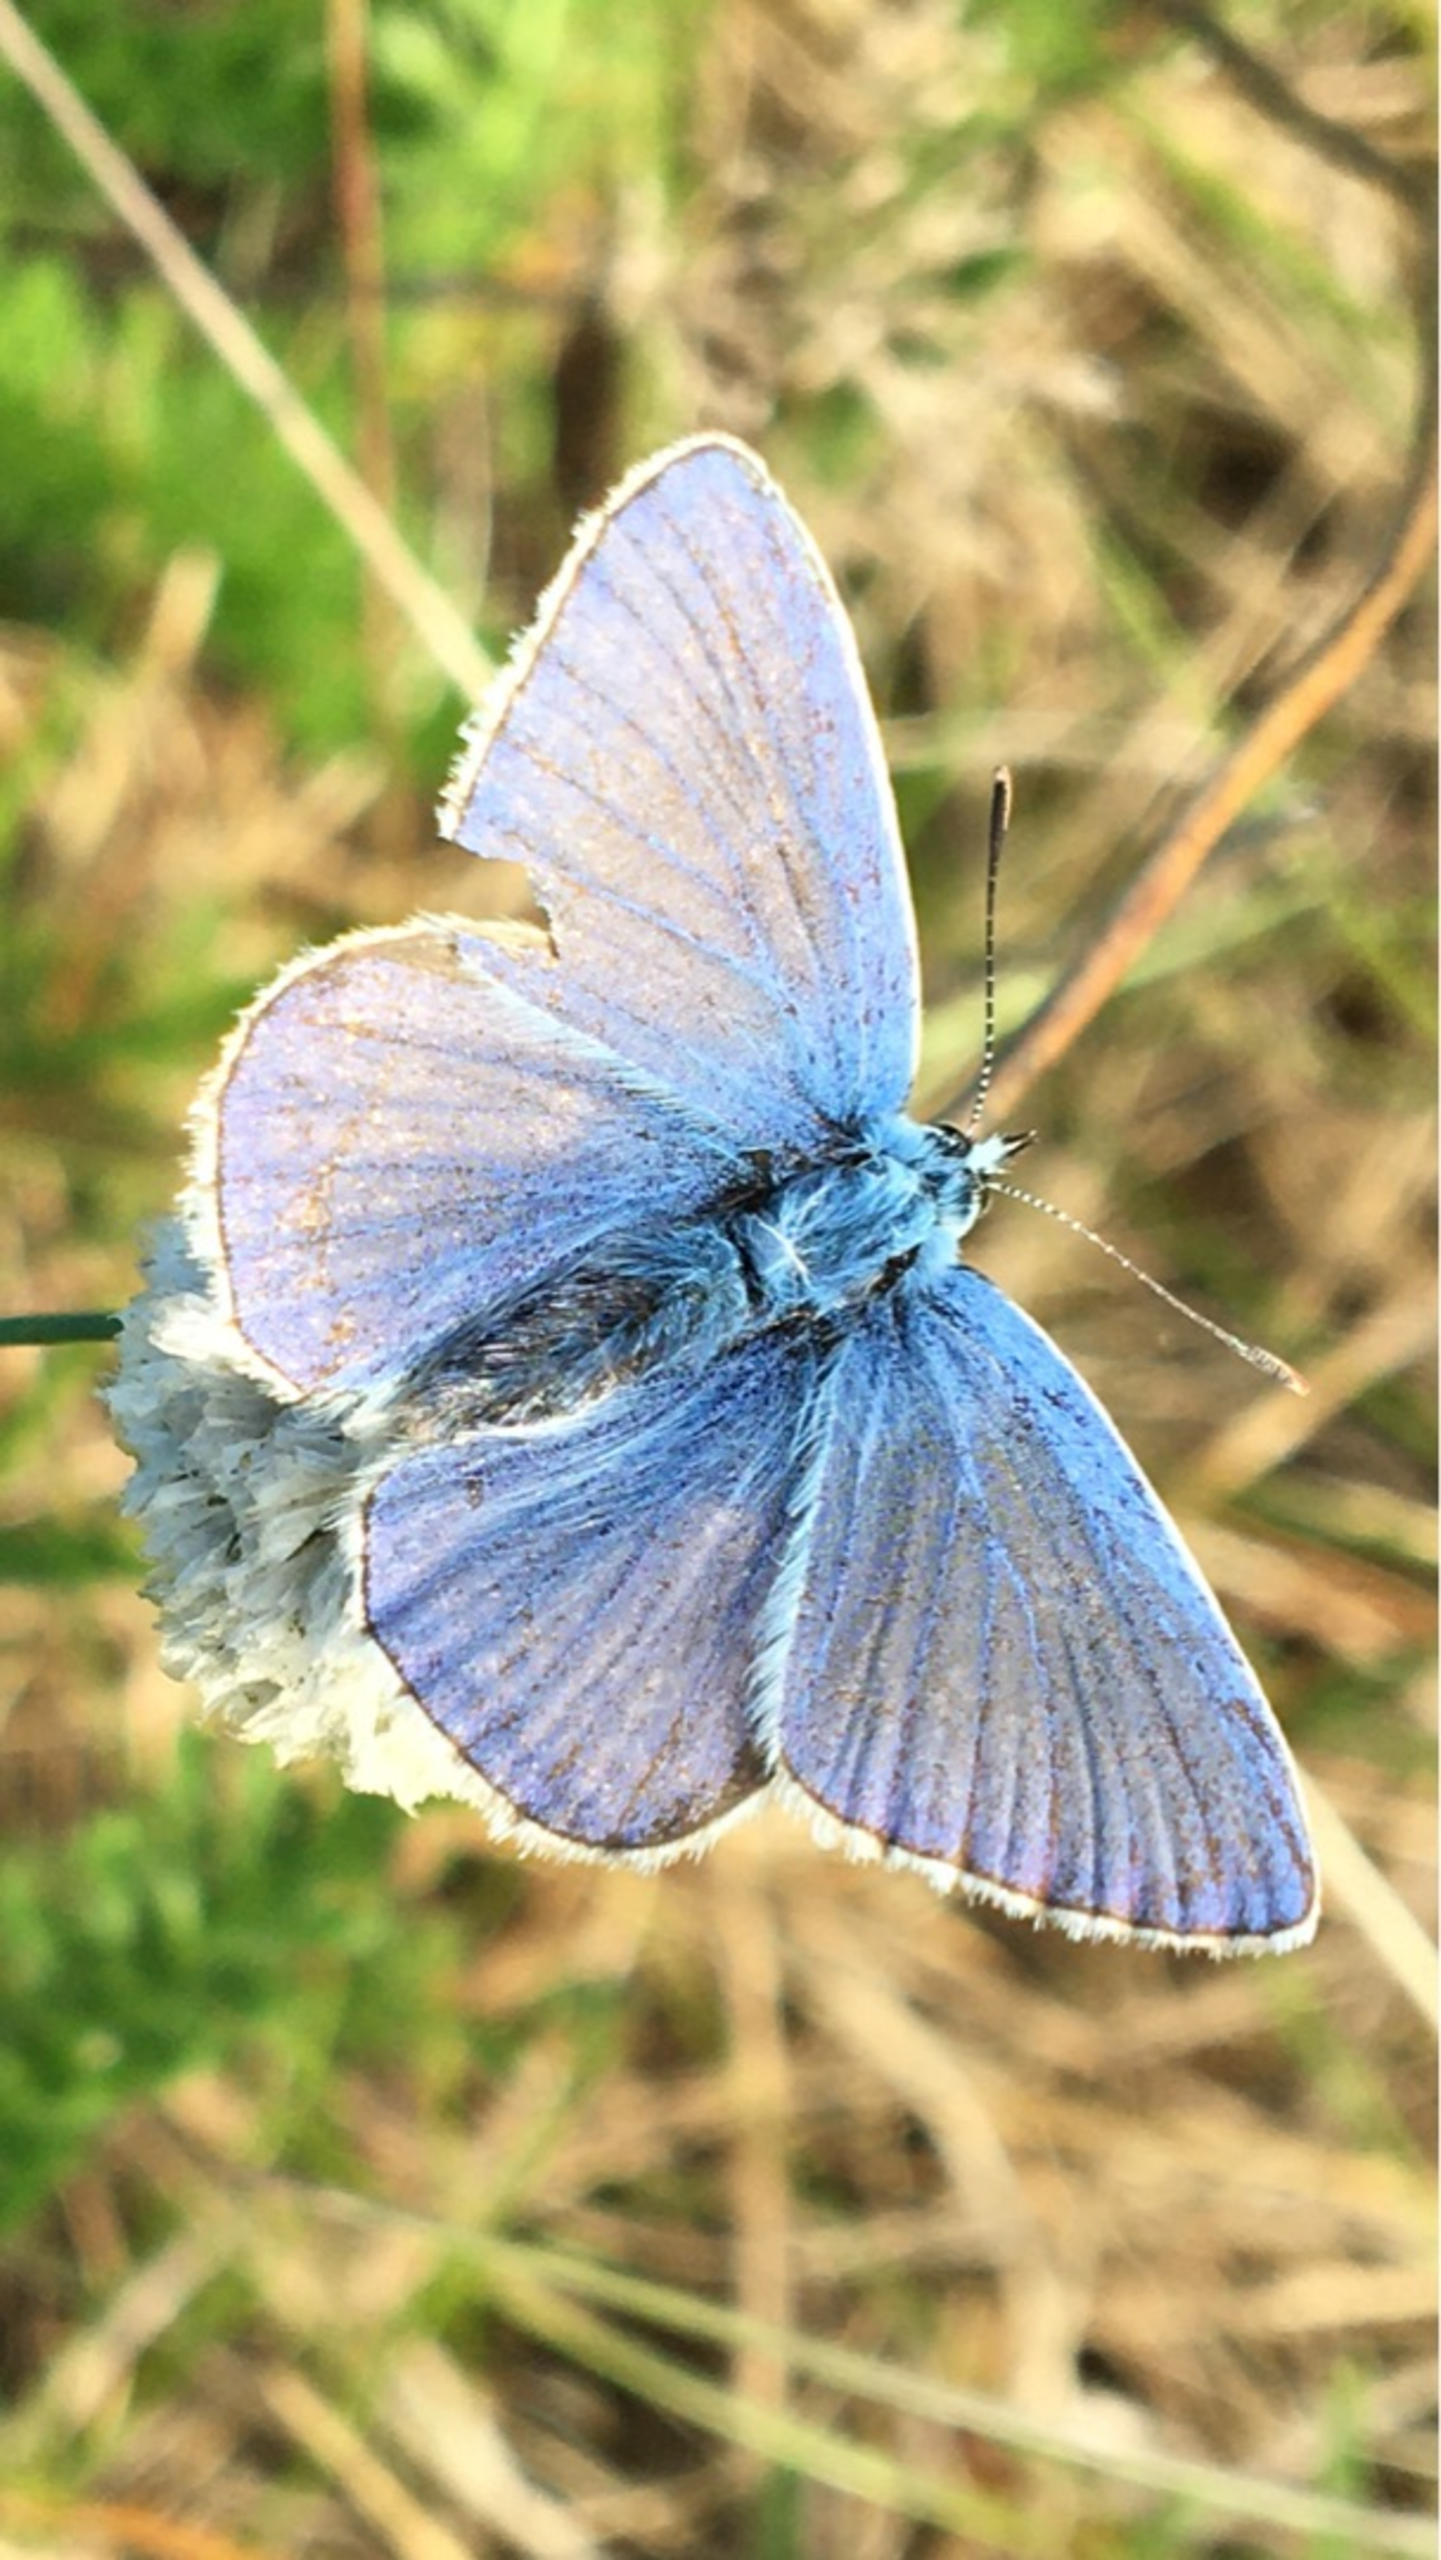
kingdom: Animalia
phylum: Arthropoda
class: Insecta
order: Lepidoptera
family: Lycaenidae
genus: Polyommatus
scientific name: Polyommatus icarus
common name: Almindelig blåfugl
